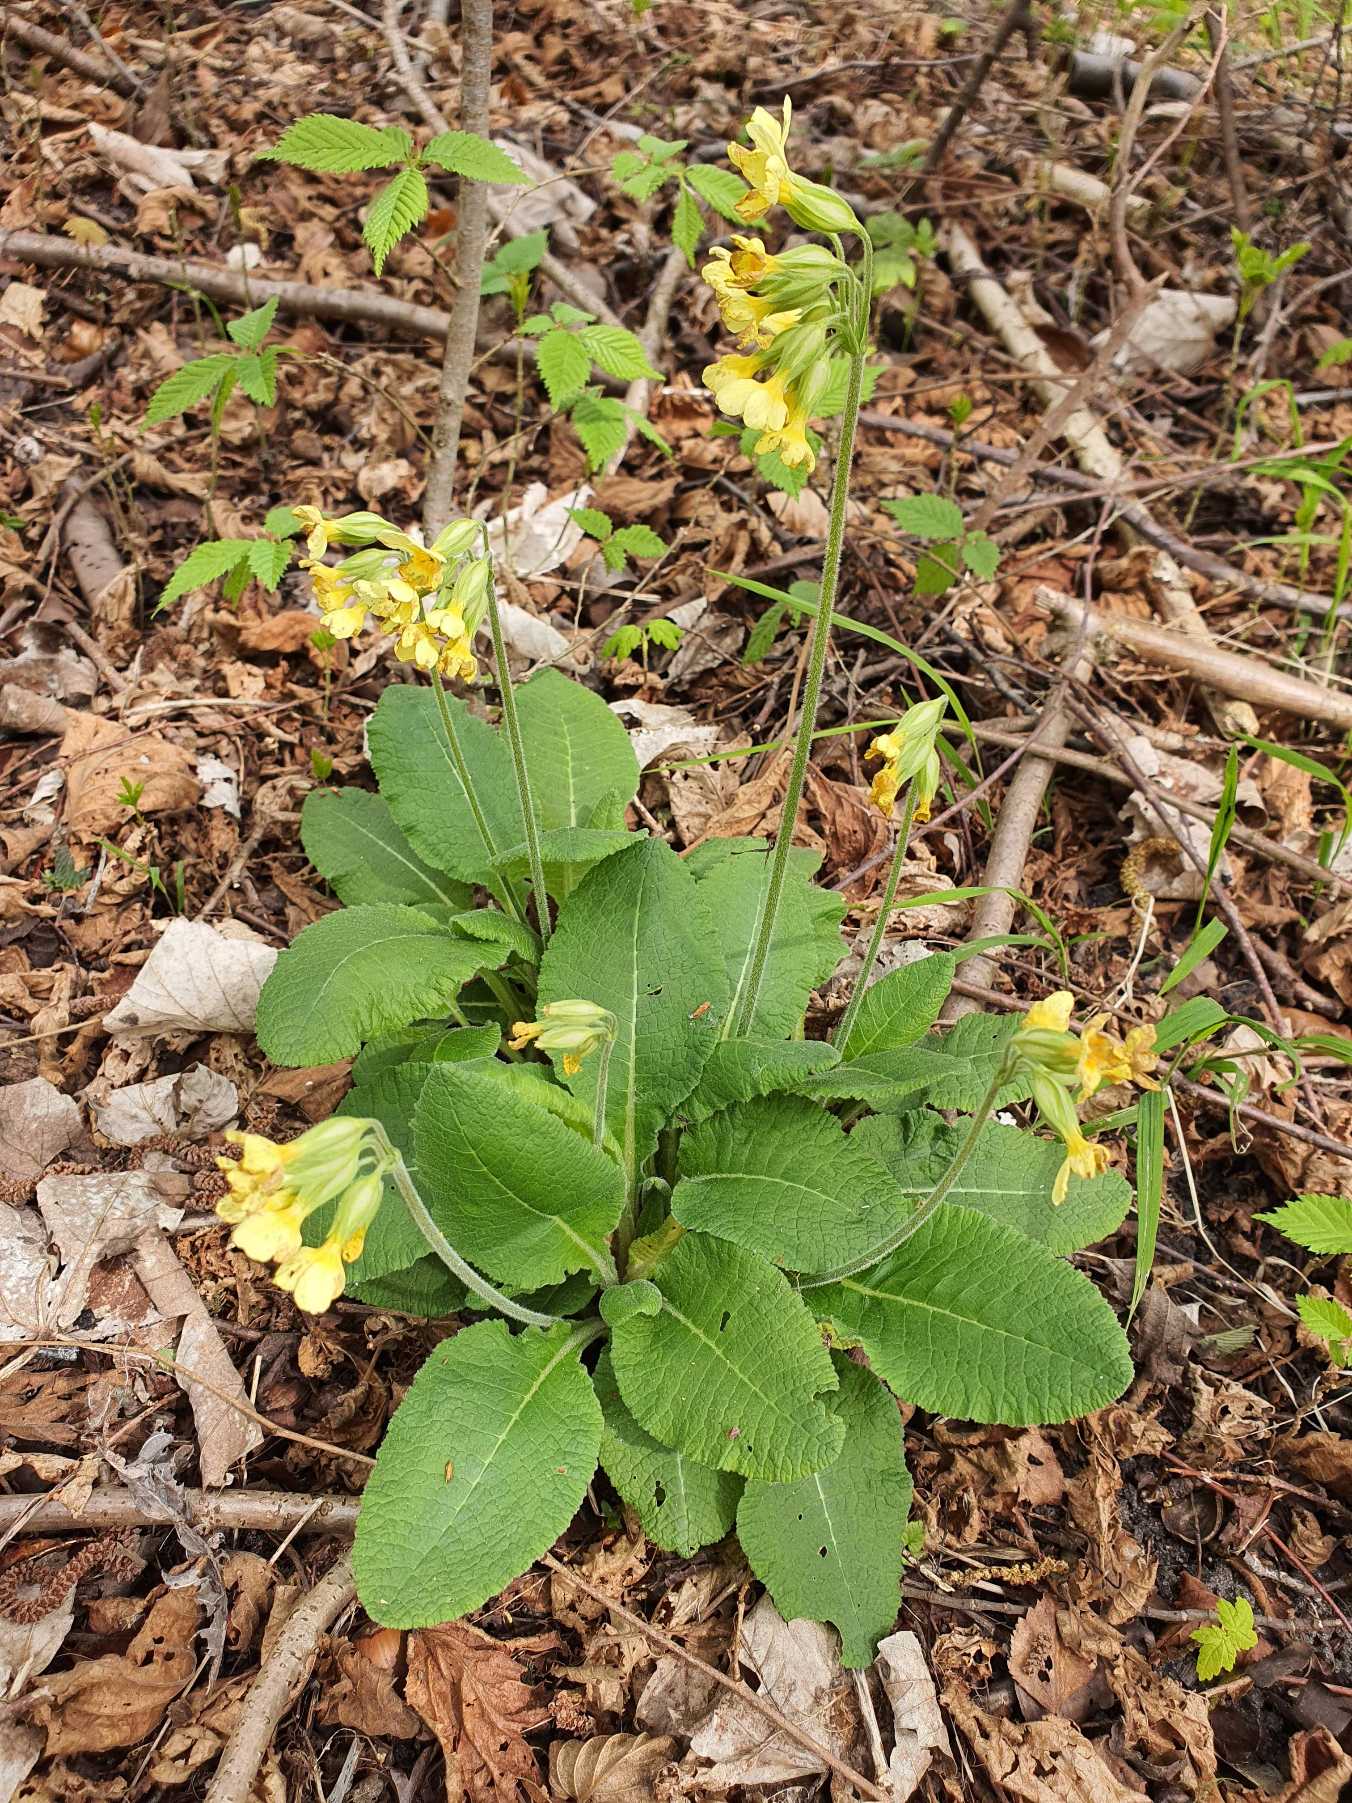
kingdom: Plantae
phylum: Tracheophyta
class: Magnoliopsida
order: Ericales
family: Primulaceae
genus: Primula
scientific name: Primula elatior
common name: Fladkravet kodriver
